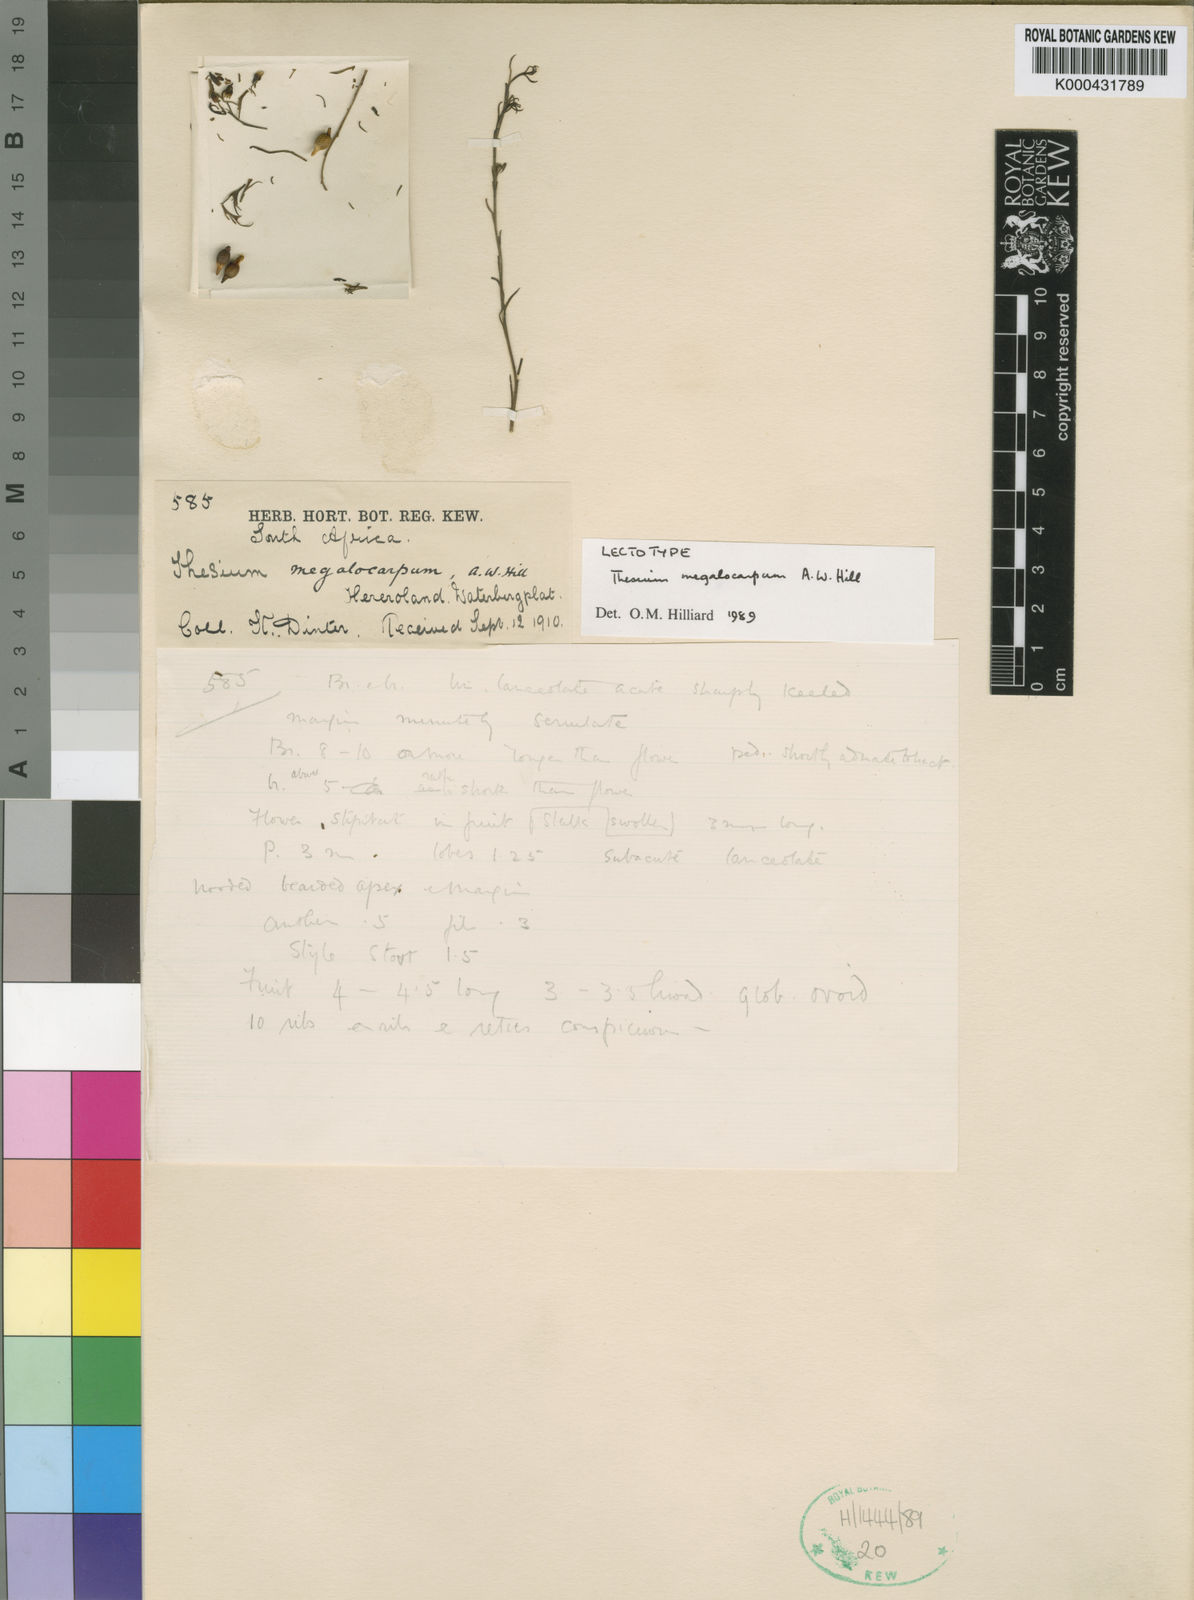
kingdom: Plantae
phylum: Tracheophyta
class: Magnoliopsida
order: Santalales
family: Thesiaceae
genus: Thesium
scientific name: Thesium megalocarpum
